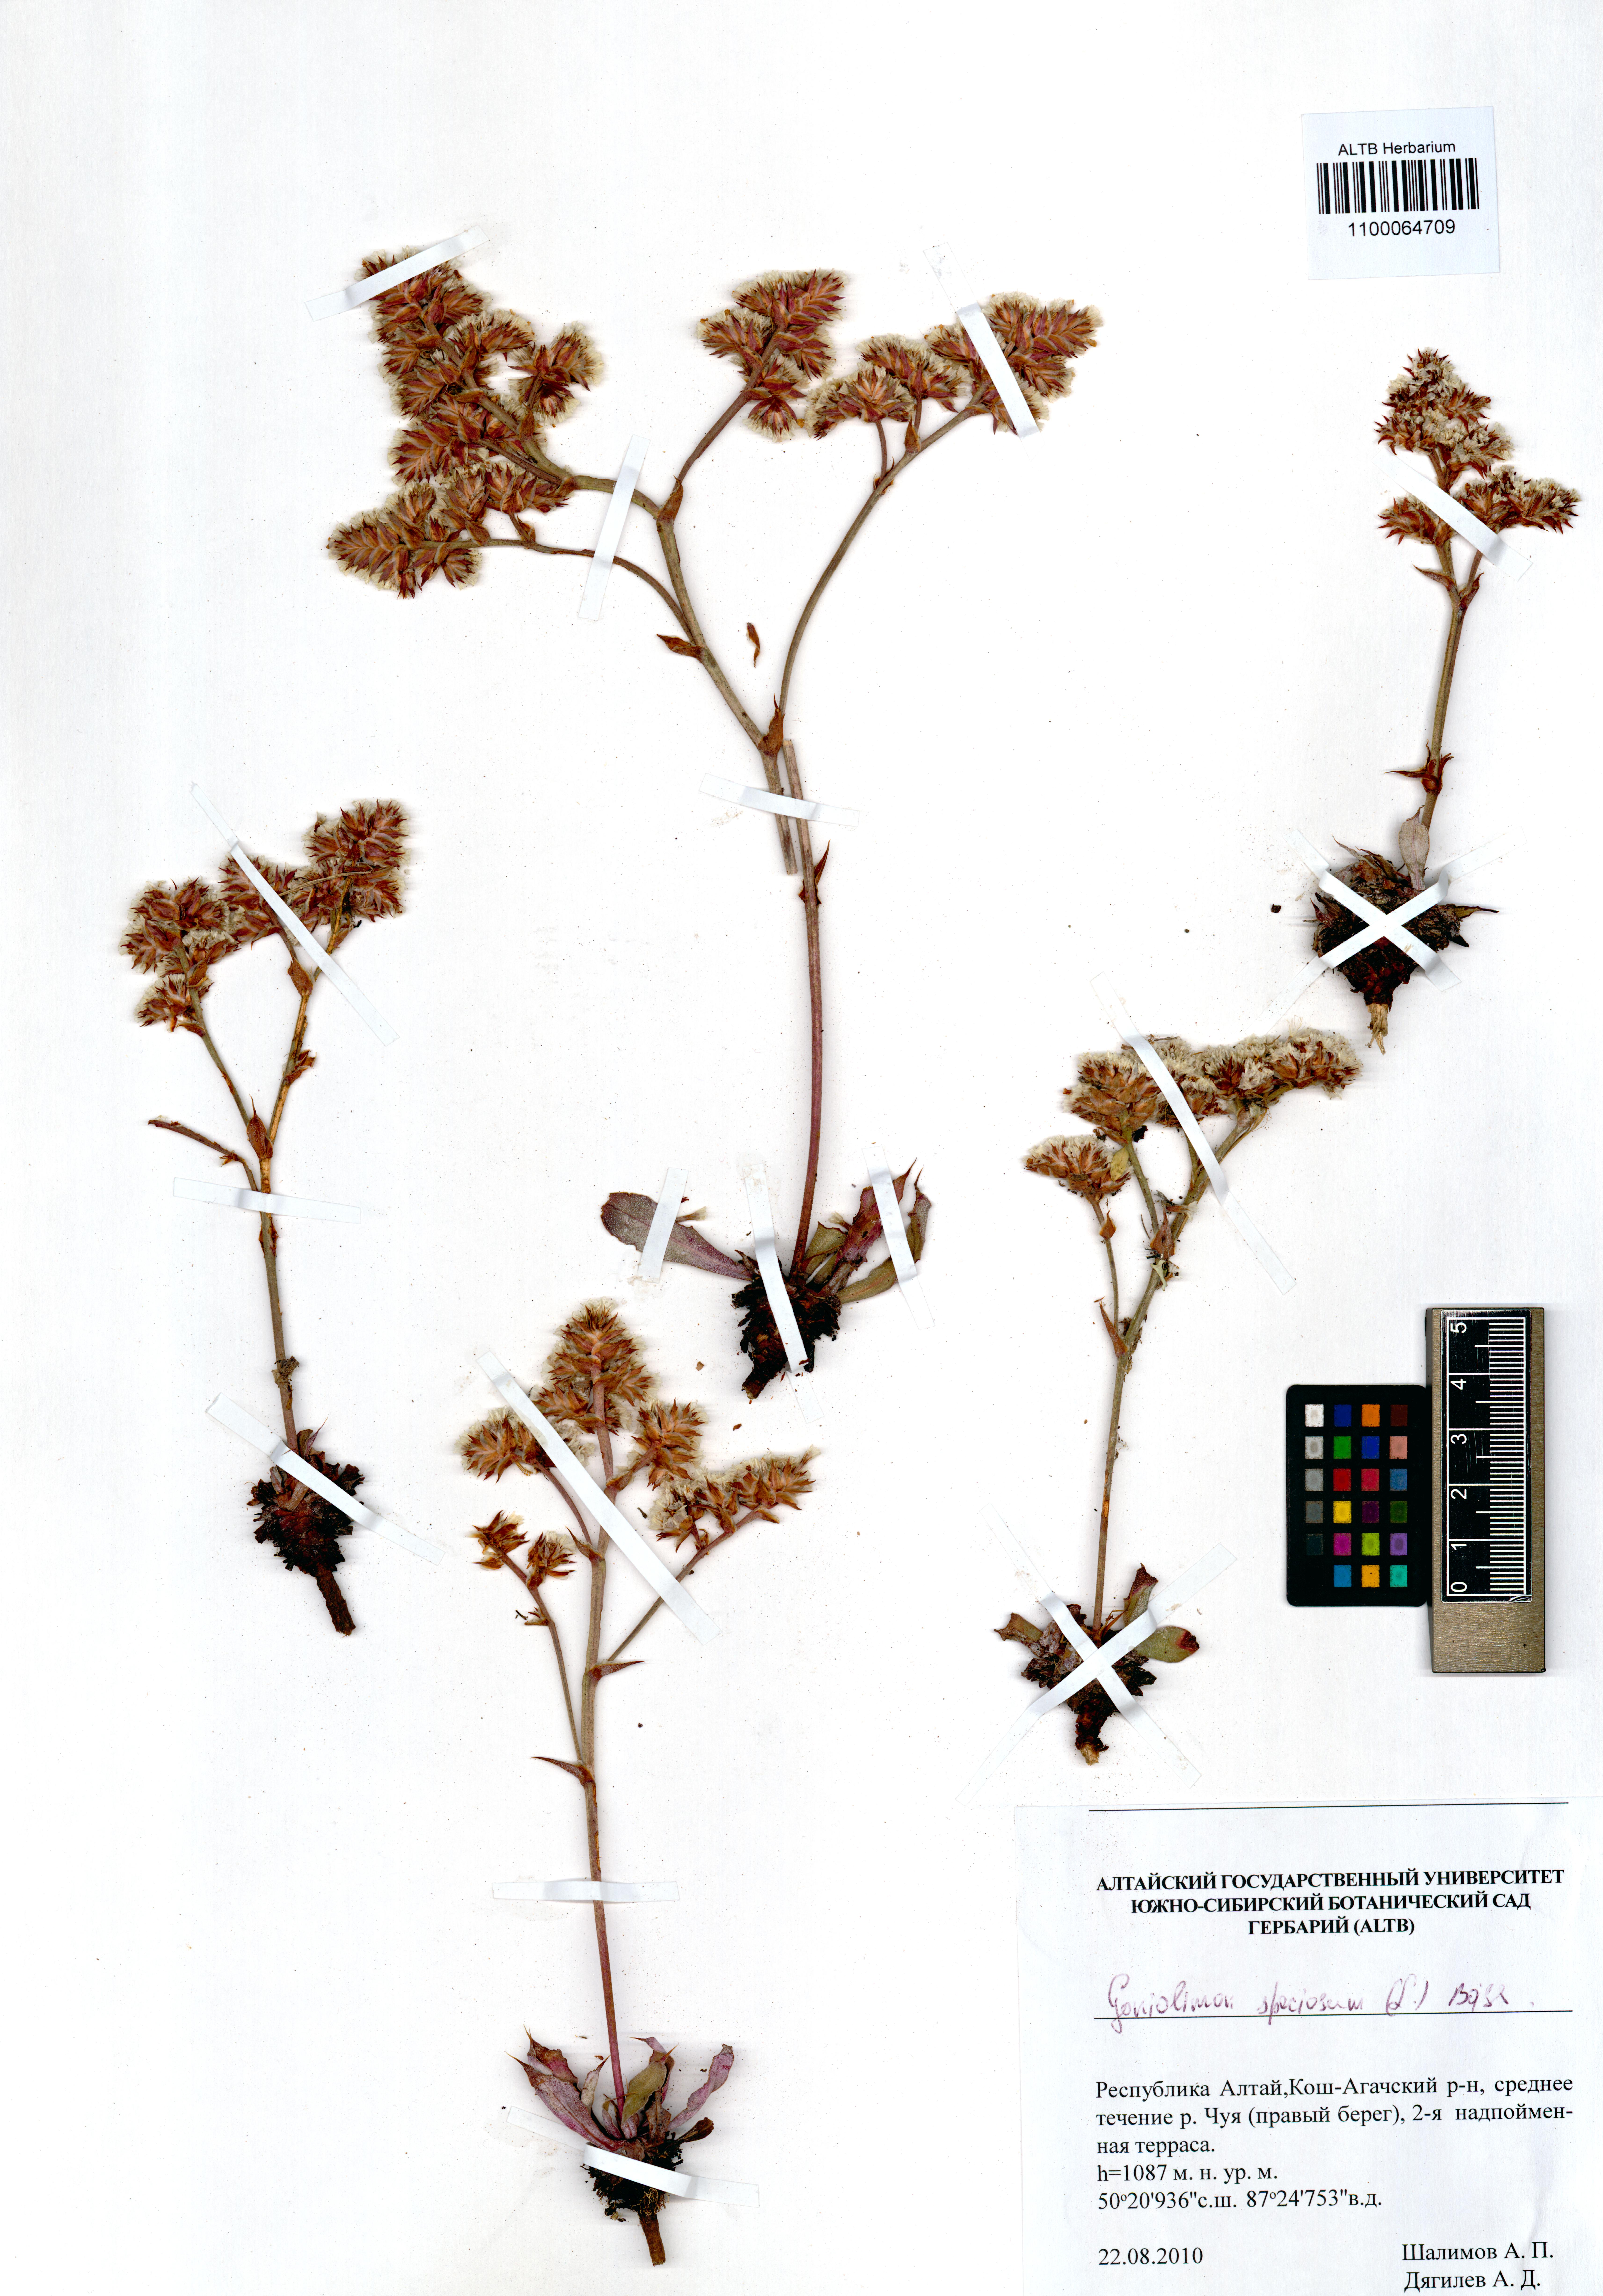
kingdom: Plantae
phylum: Tracheophyta
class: Magnoliopsida
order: Caryophyllales
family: Plumbaginaceae
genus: Goniolimon
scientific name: Goniolimon speciosum
